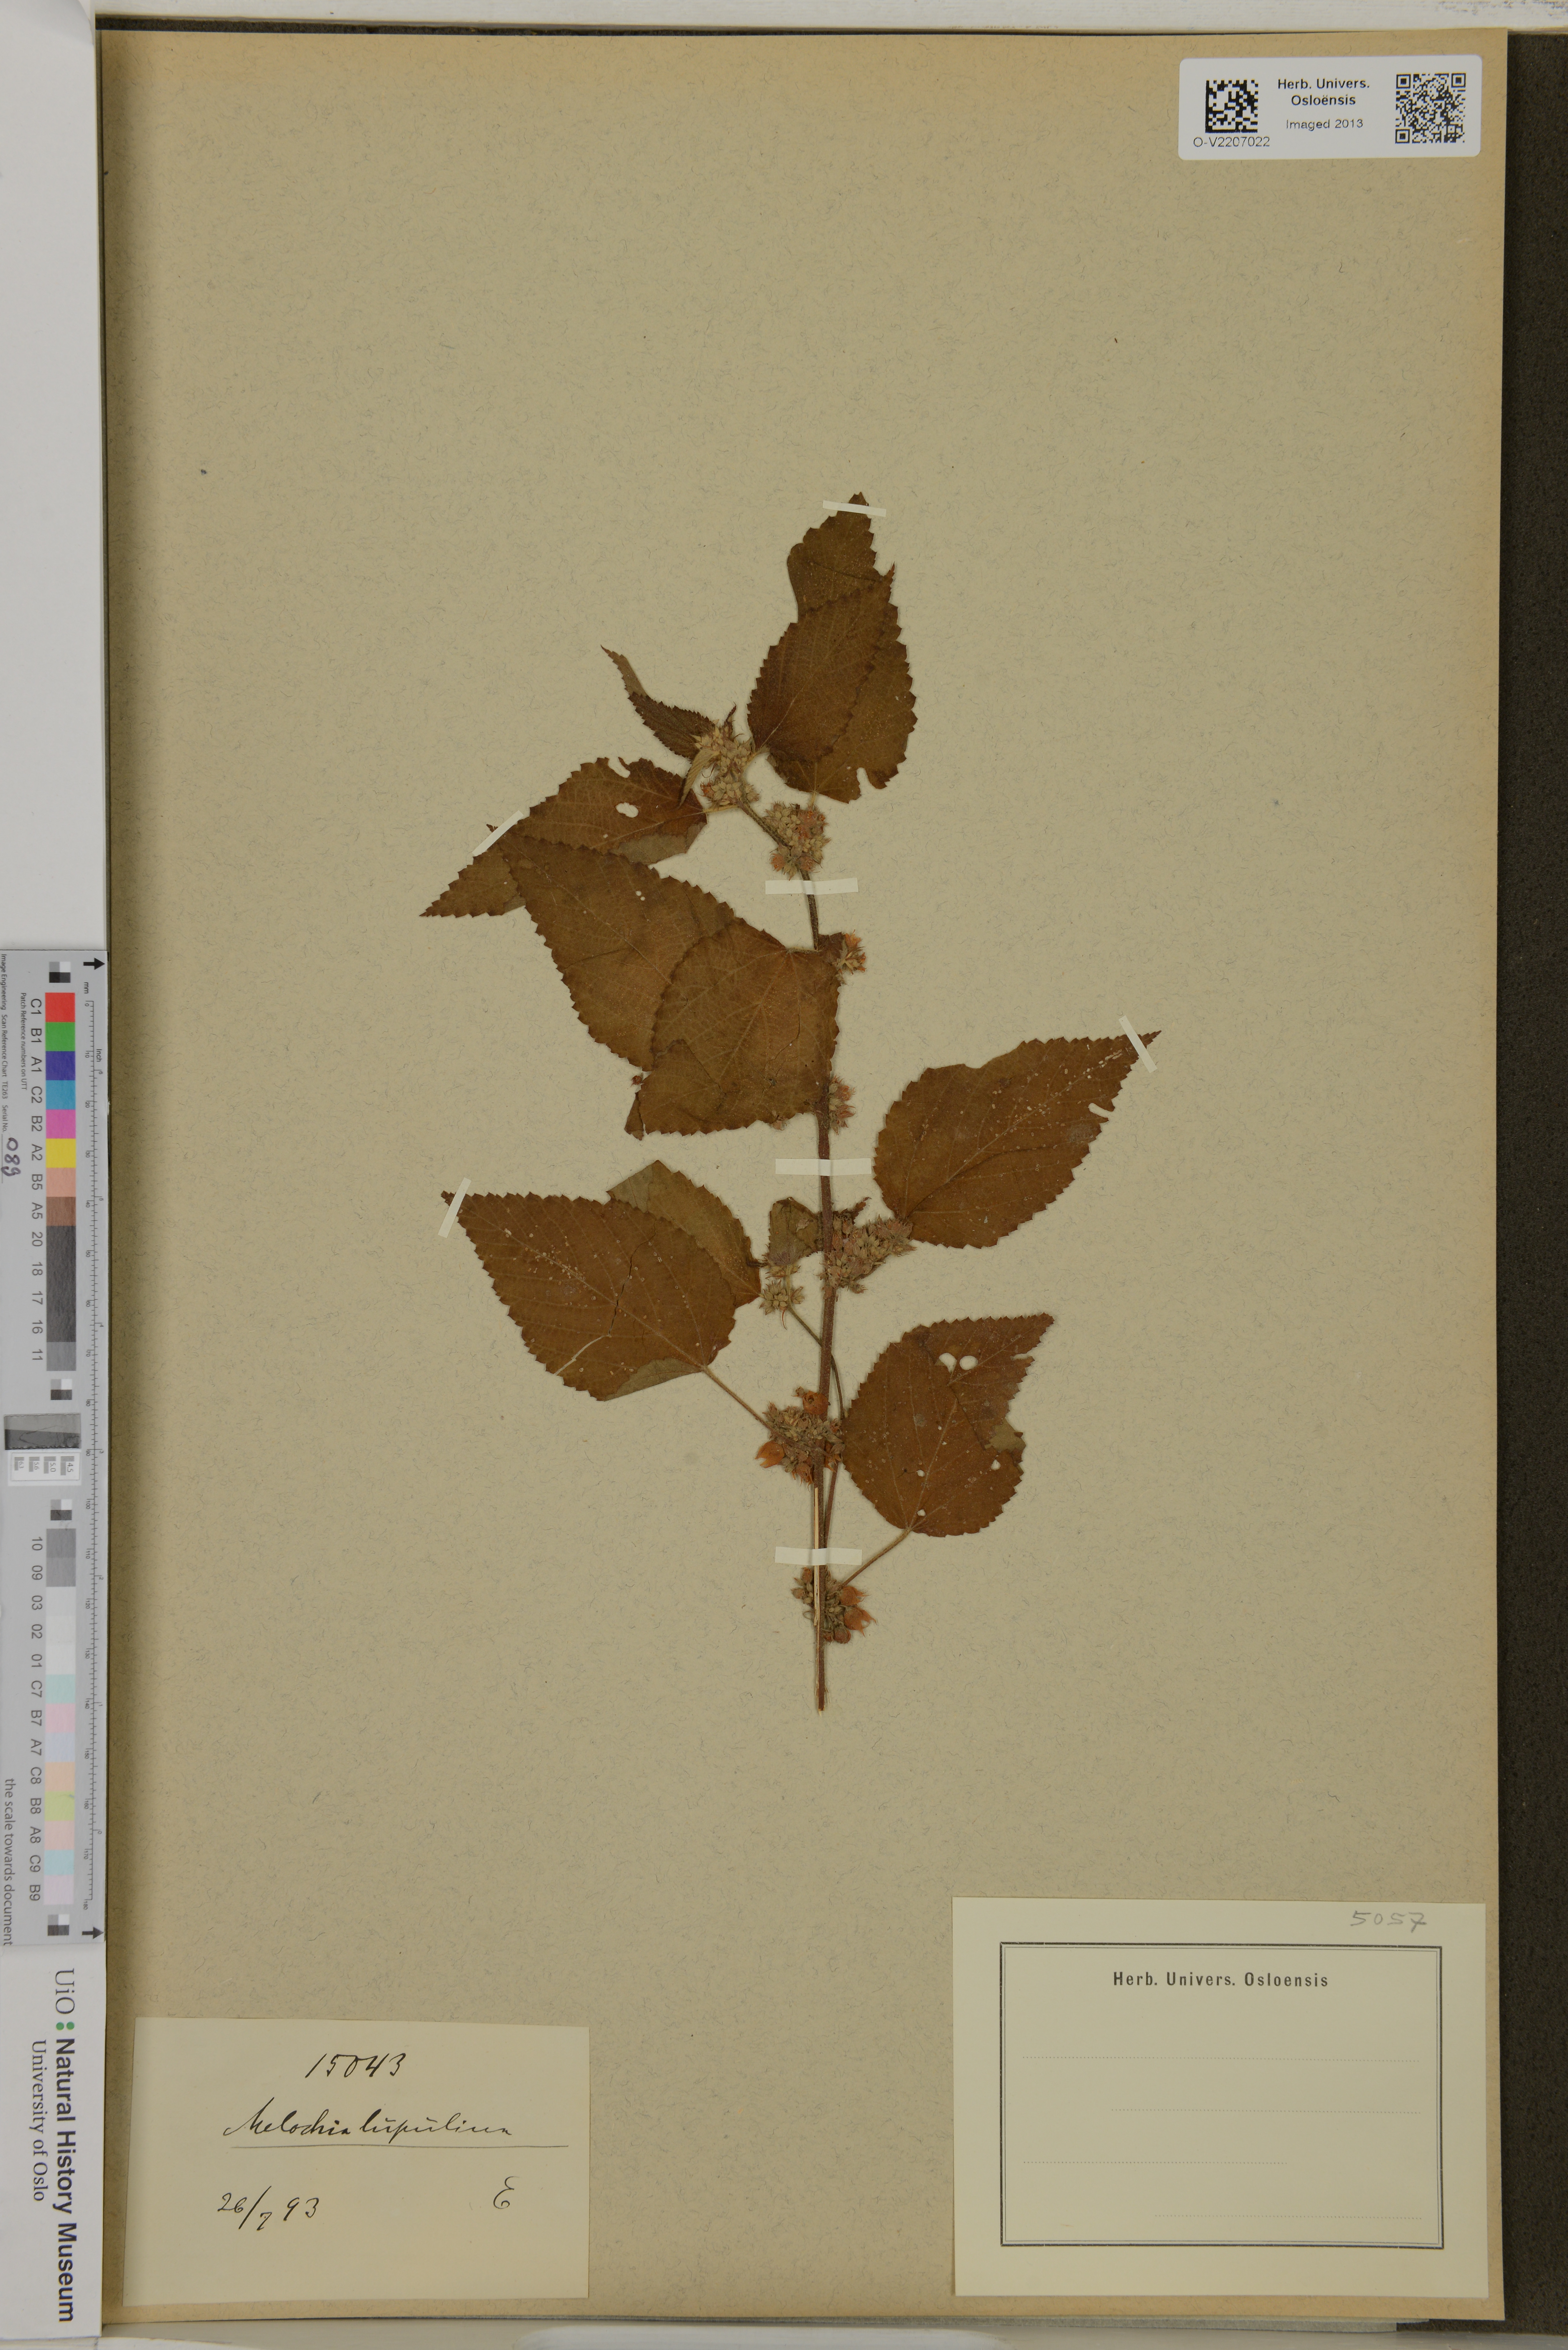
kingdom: Plantae
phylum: Tracheophyta
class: Magnoliopsida
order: Malvales
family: Malvaceae
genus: Melochia
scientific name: Melochia lupulina
